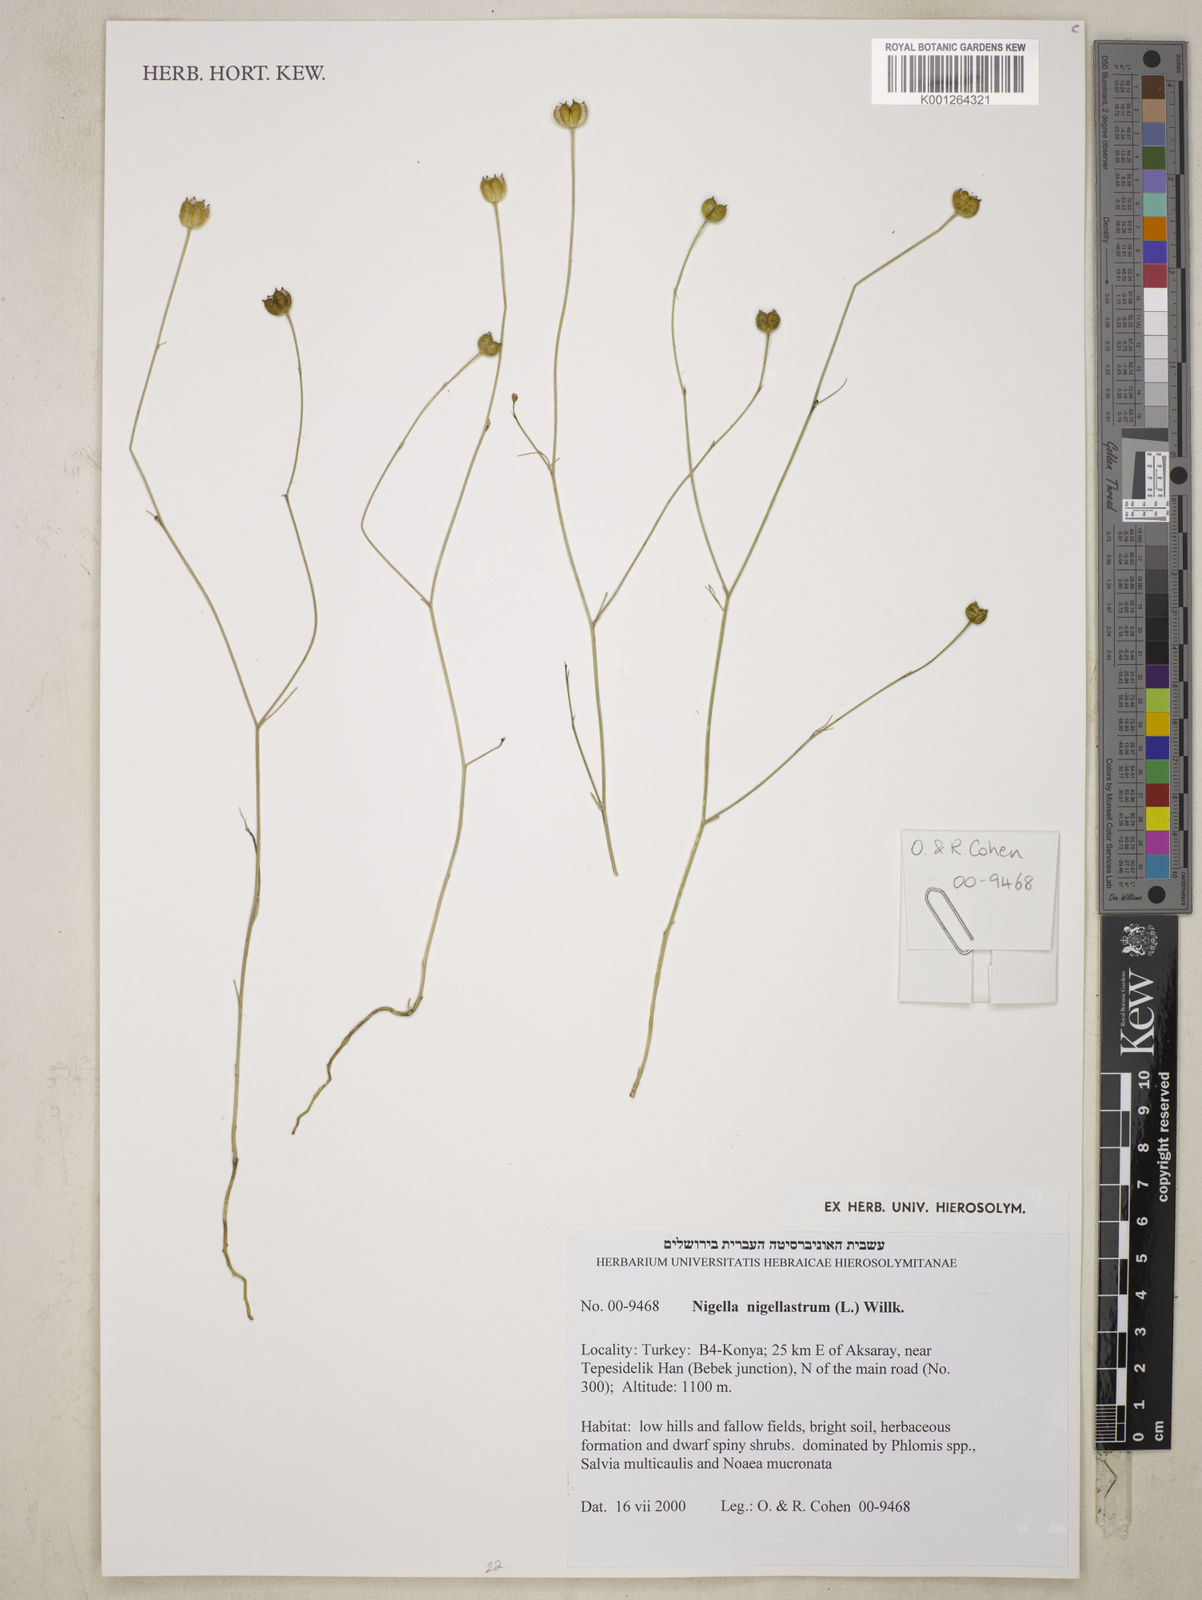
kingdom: Plantae
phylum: Tracheophyta
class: Magnoliopsida
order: Ranunculales
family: Ranunculaceae
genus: Garidella
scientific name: Garidella nigellastrum
